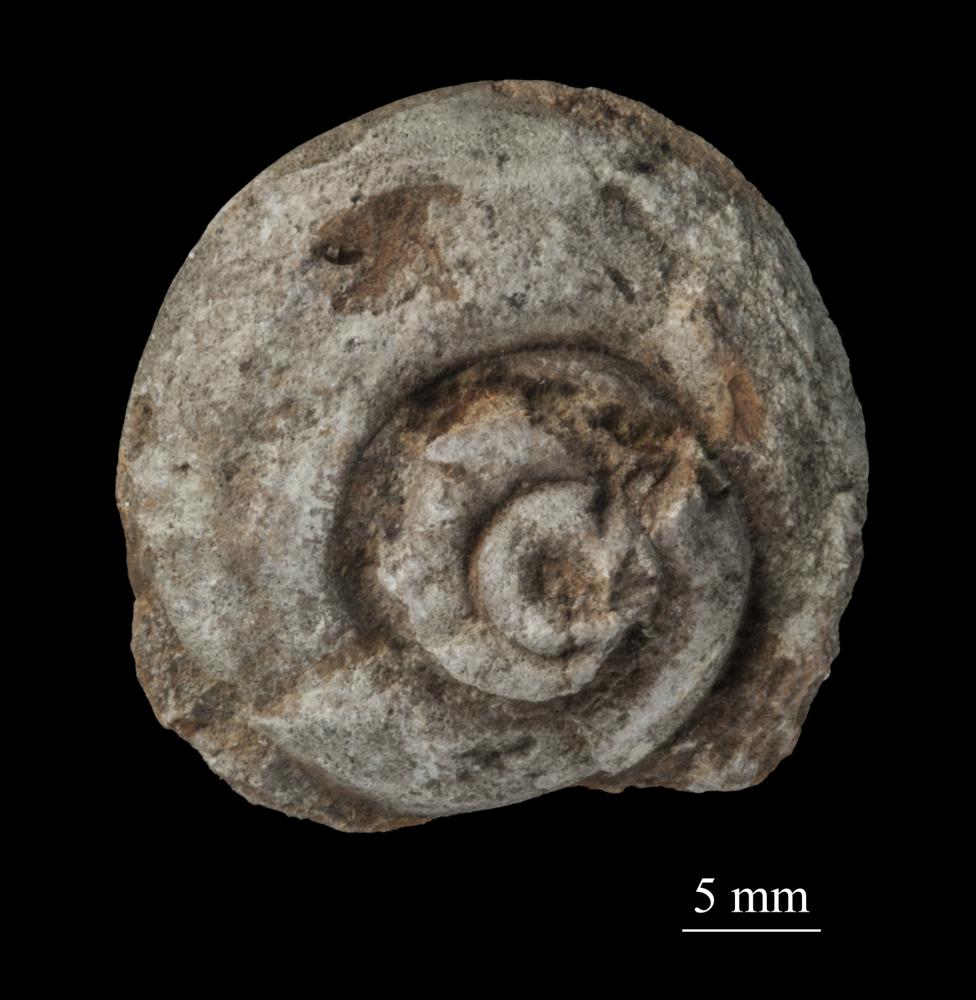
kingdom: Animalia
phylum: Mollusca
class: Gastropoda
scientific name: Gastropoda
